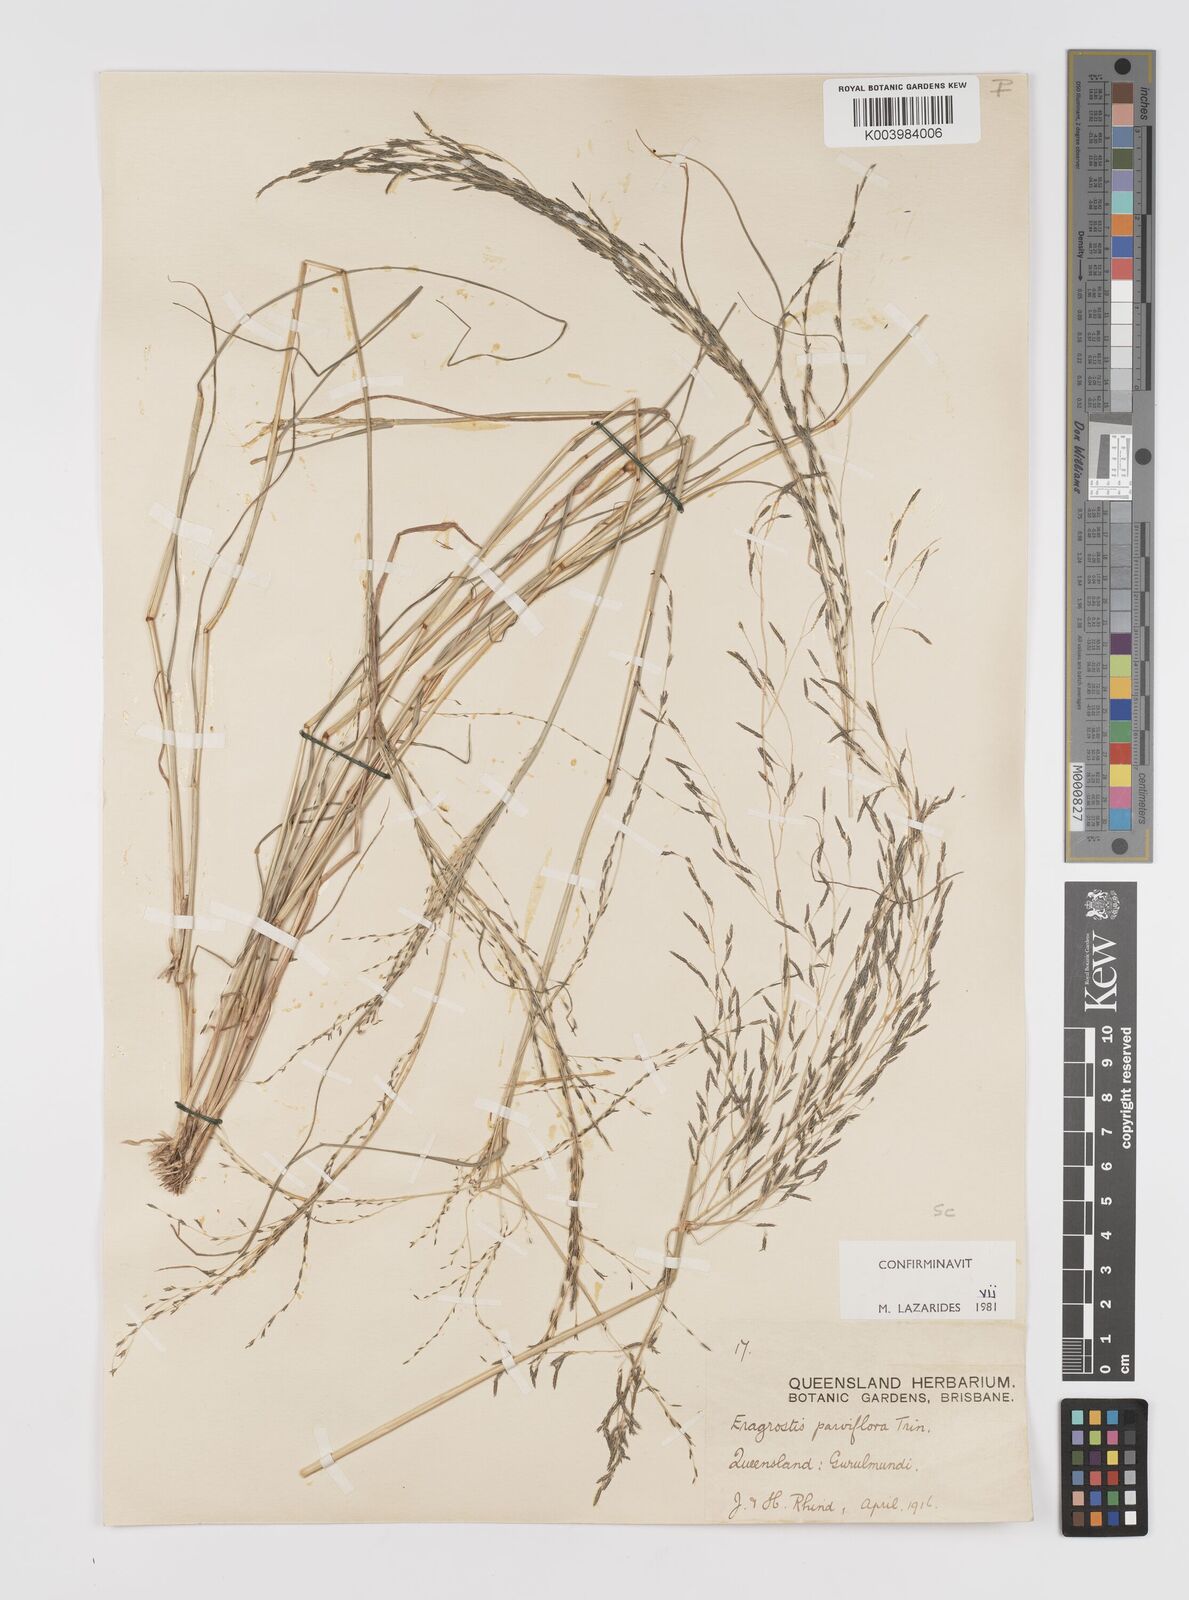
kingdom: Plantae
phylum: Tracheophyta
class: Liliopsida
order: Poales
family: Poaceae
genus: Eragrostis
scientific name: Eragrostis parviflora
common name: Weeping love-grass
